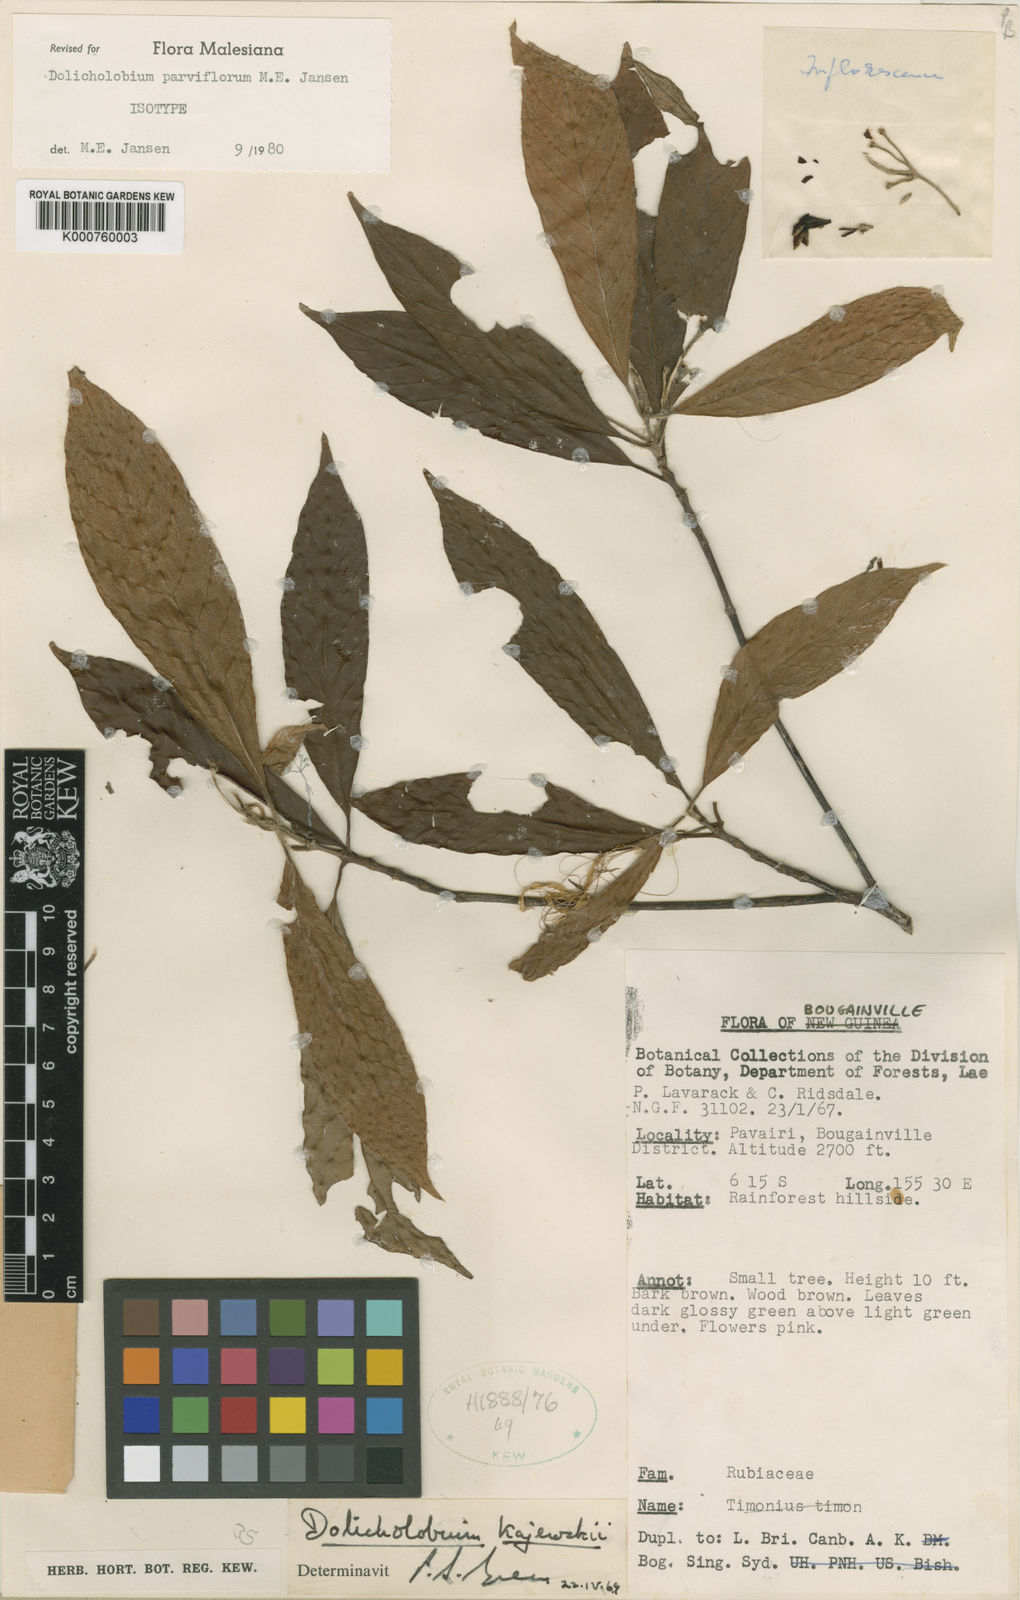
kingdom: Plantae
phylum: Tracheophyta
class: Magnoliopsida
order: Gentianales
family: Rubiaceae
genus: Dolicholobium
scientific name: Dolicholobium parviflorum
